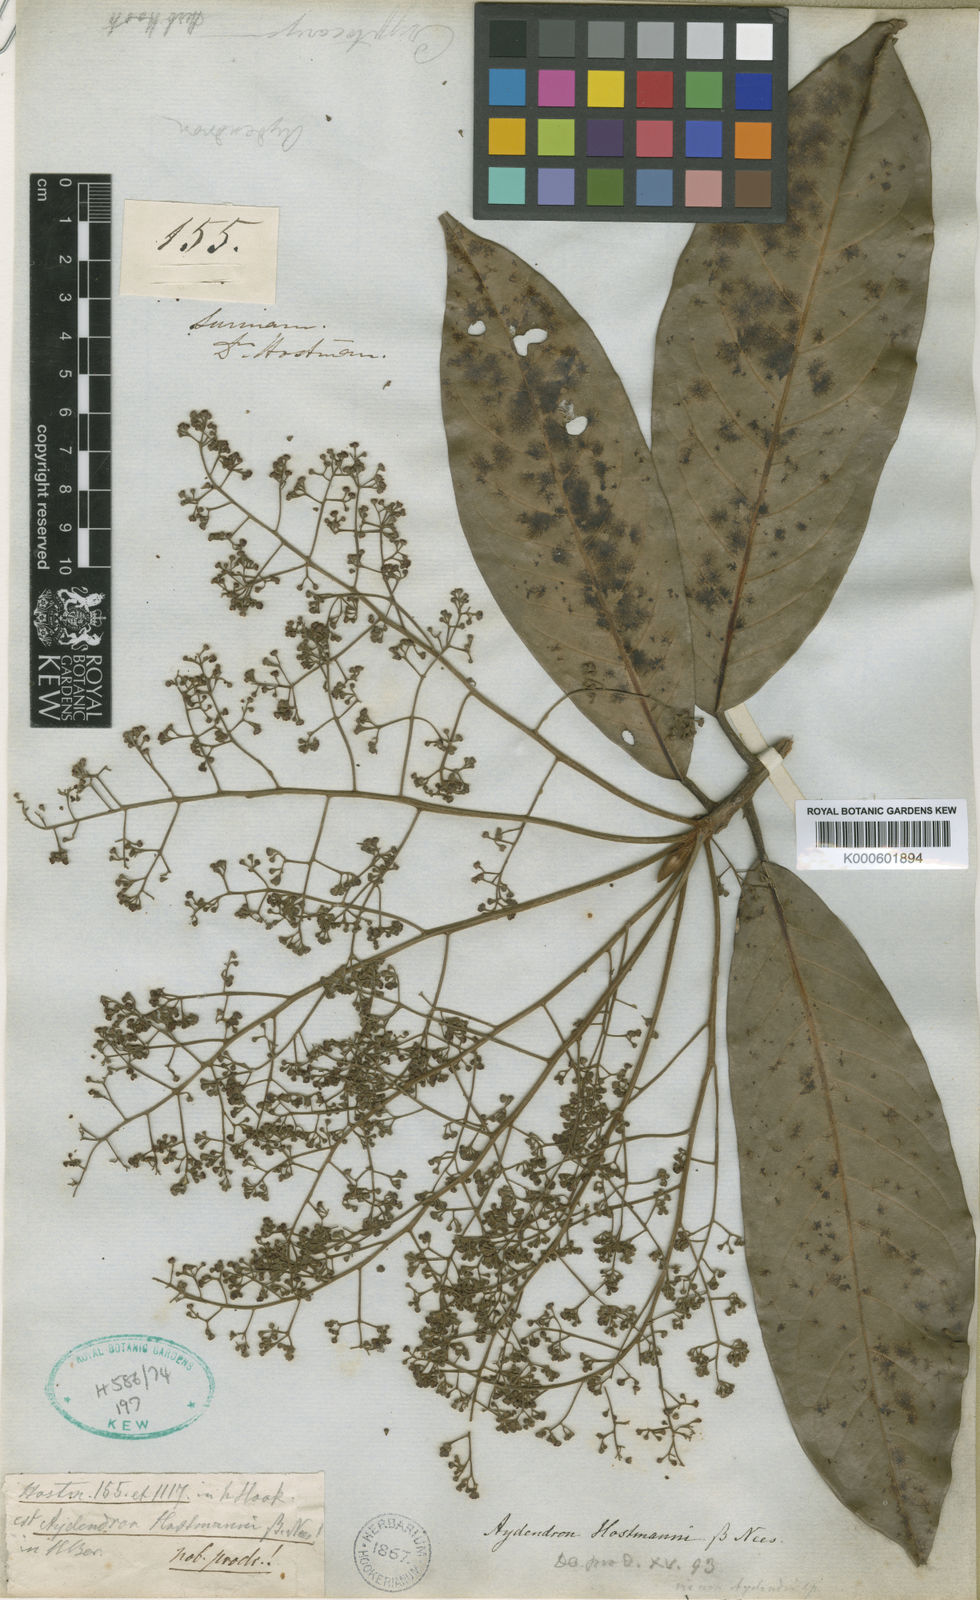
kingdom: Plantae
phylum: Tracheophyta
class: Magnoliopsida
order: Laurales
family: Lauraceae
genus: Aniba
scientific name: Aniba hostmanniana
